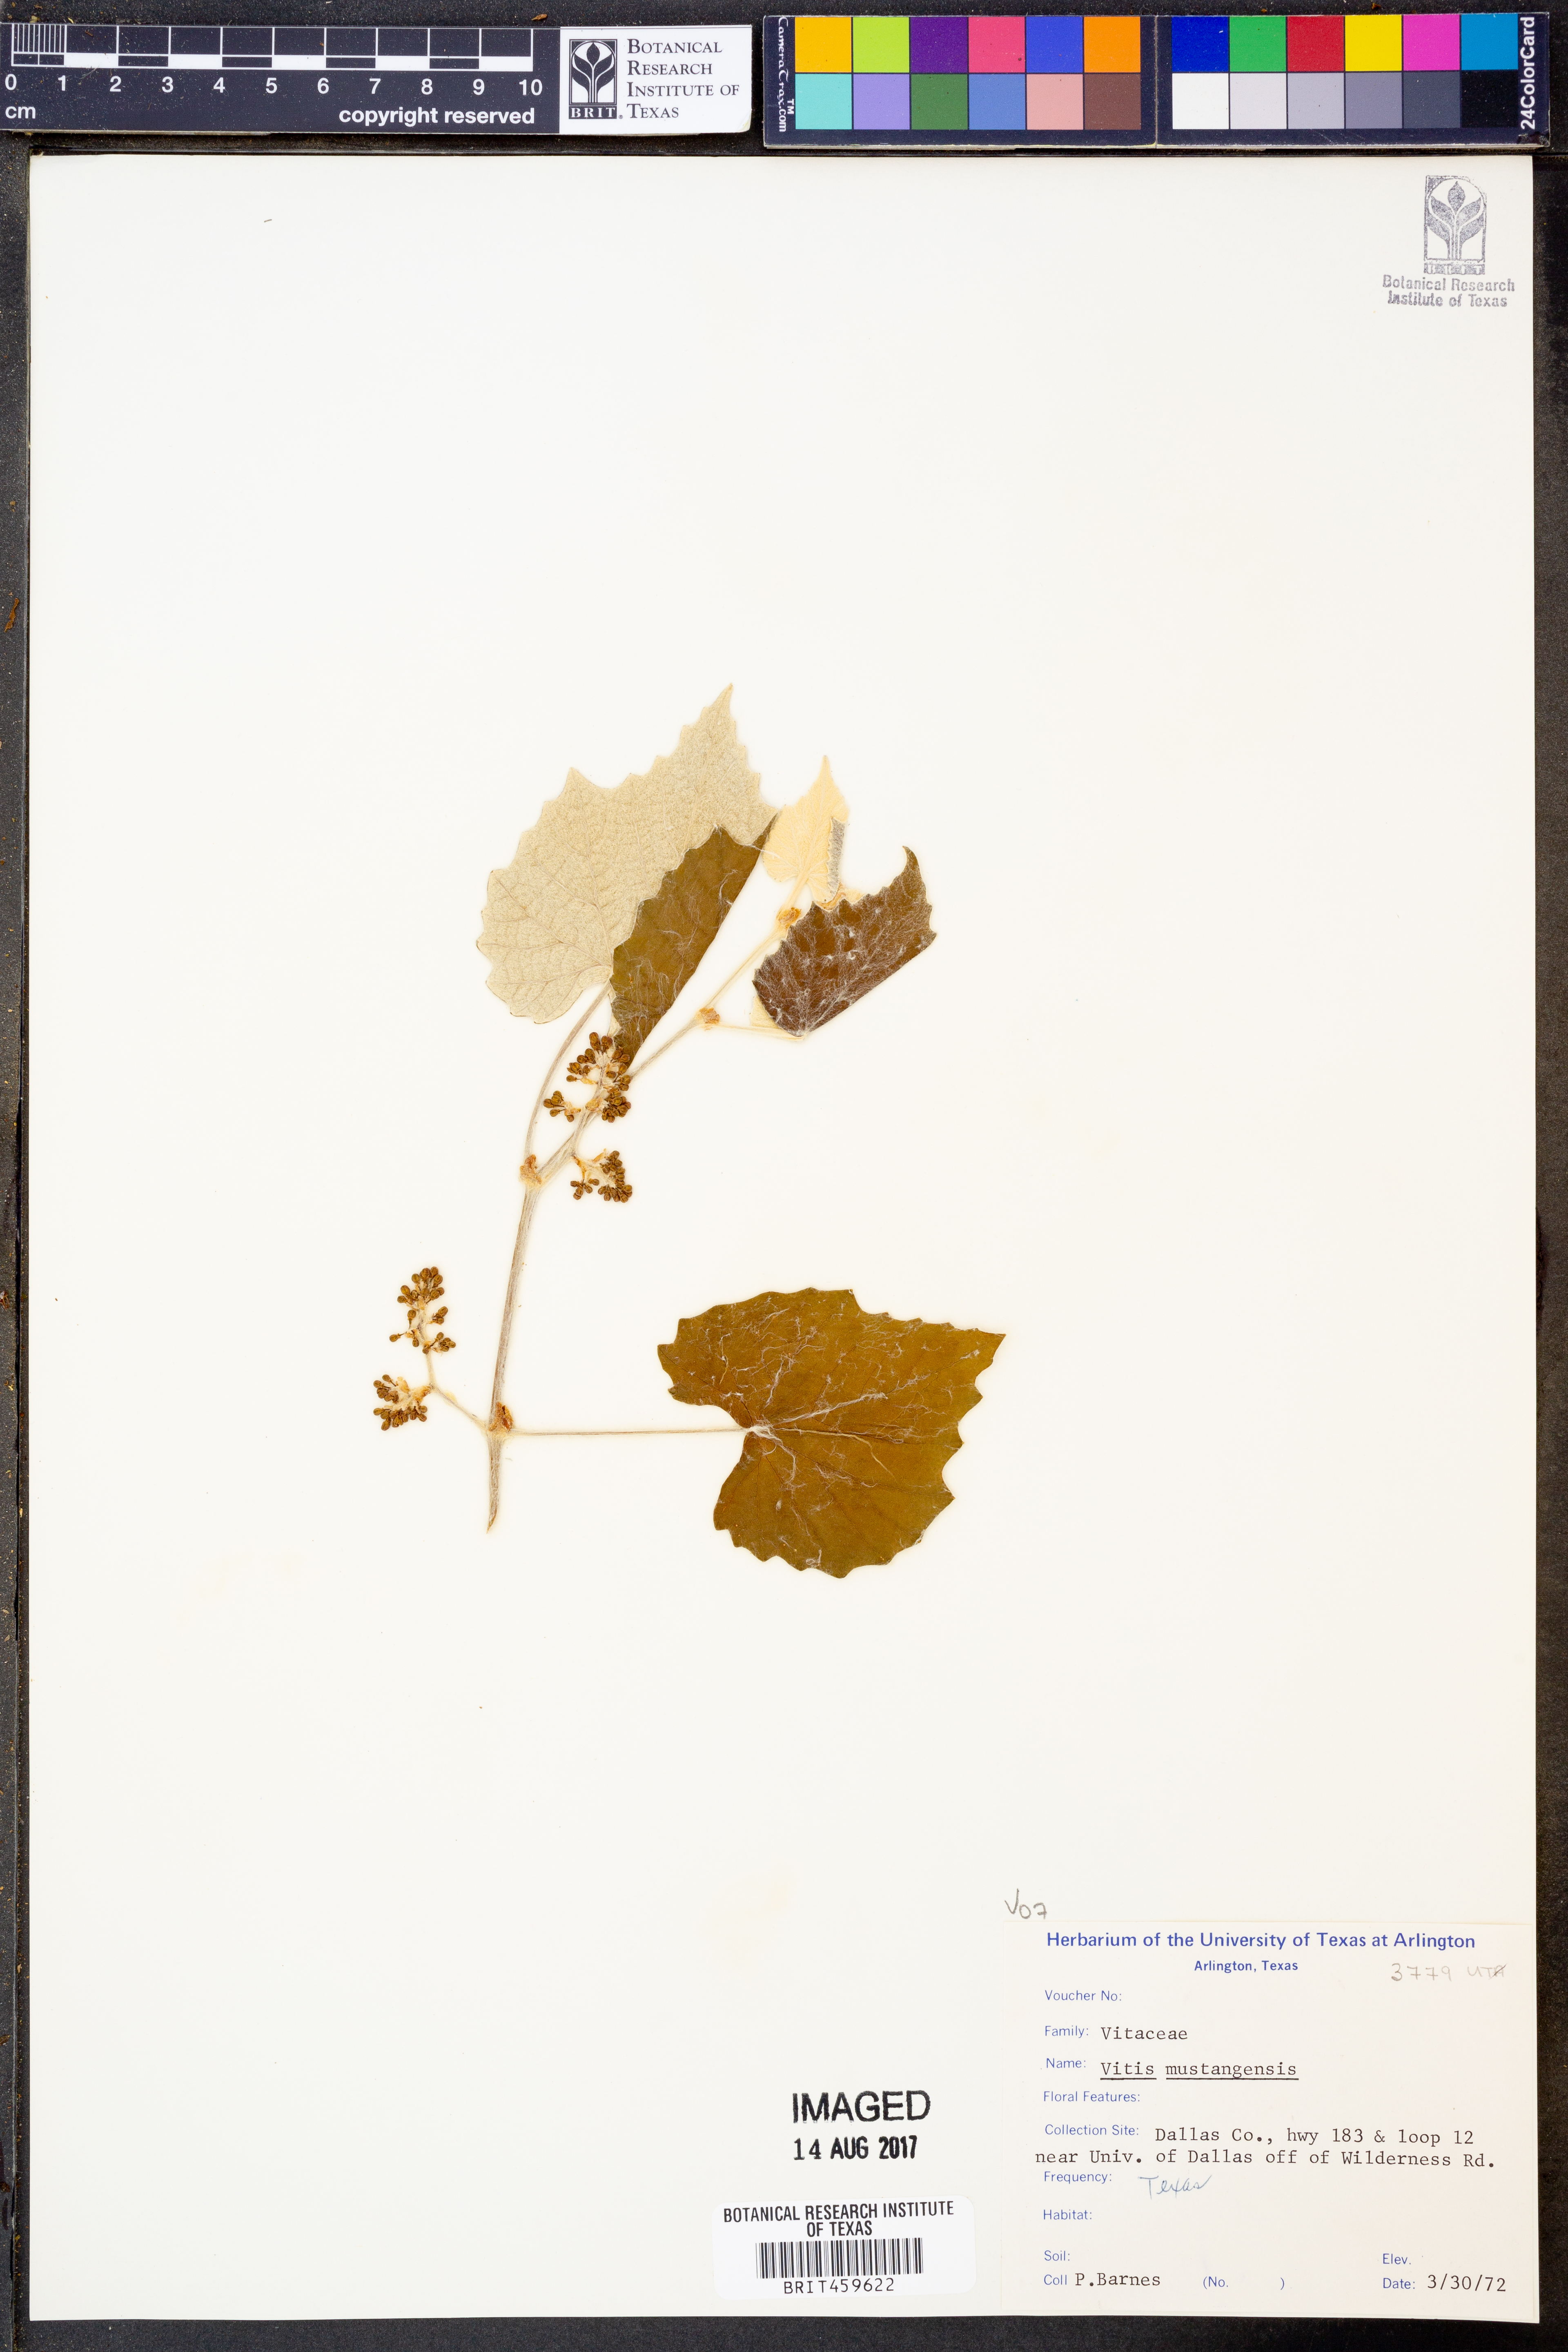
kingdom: Plantae
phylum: Tracheophyta
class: Magnoliopsida
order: Vitales
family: Vitaceae
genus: Vitis
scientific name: Vitis mustangensis
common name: Mustang grape
